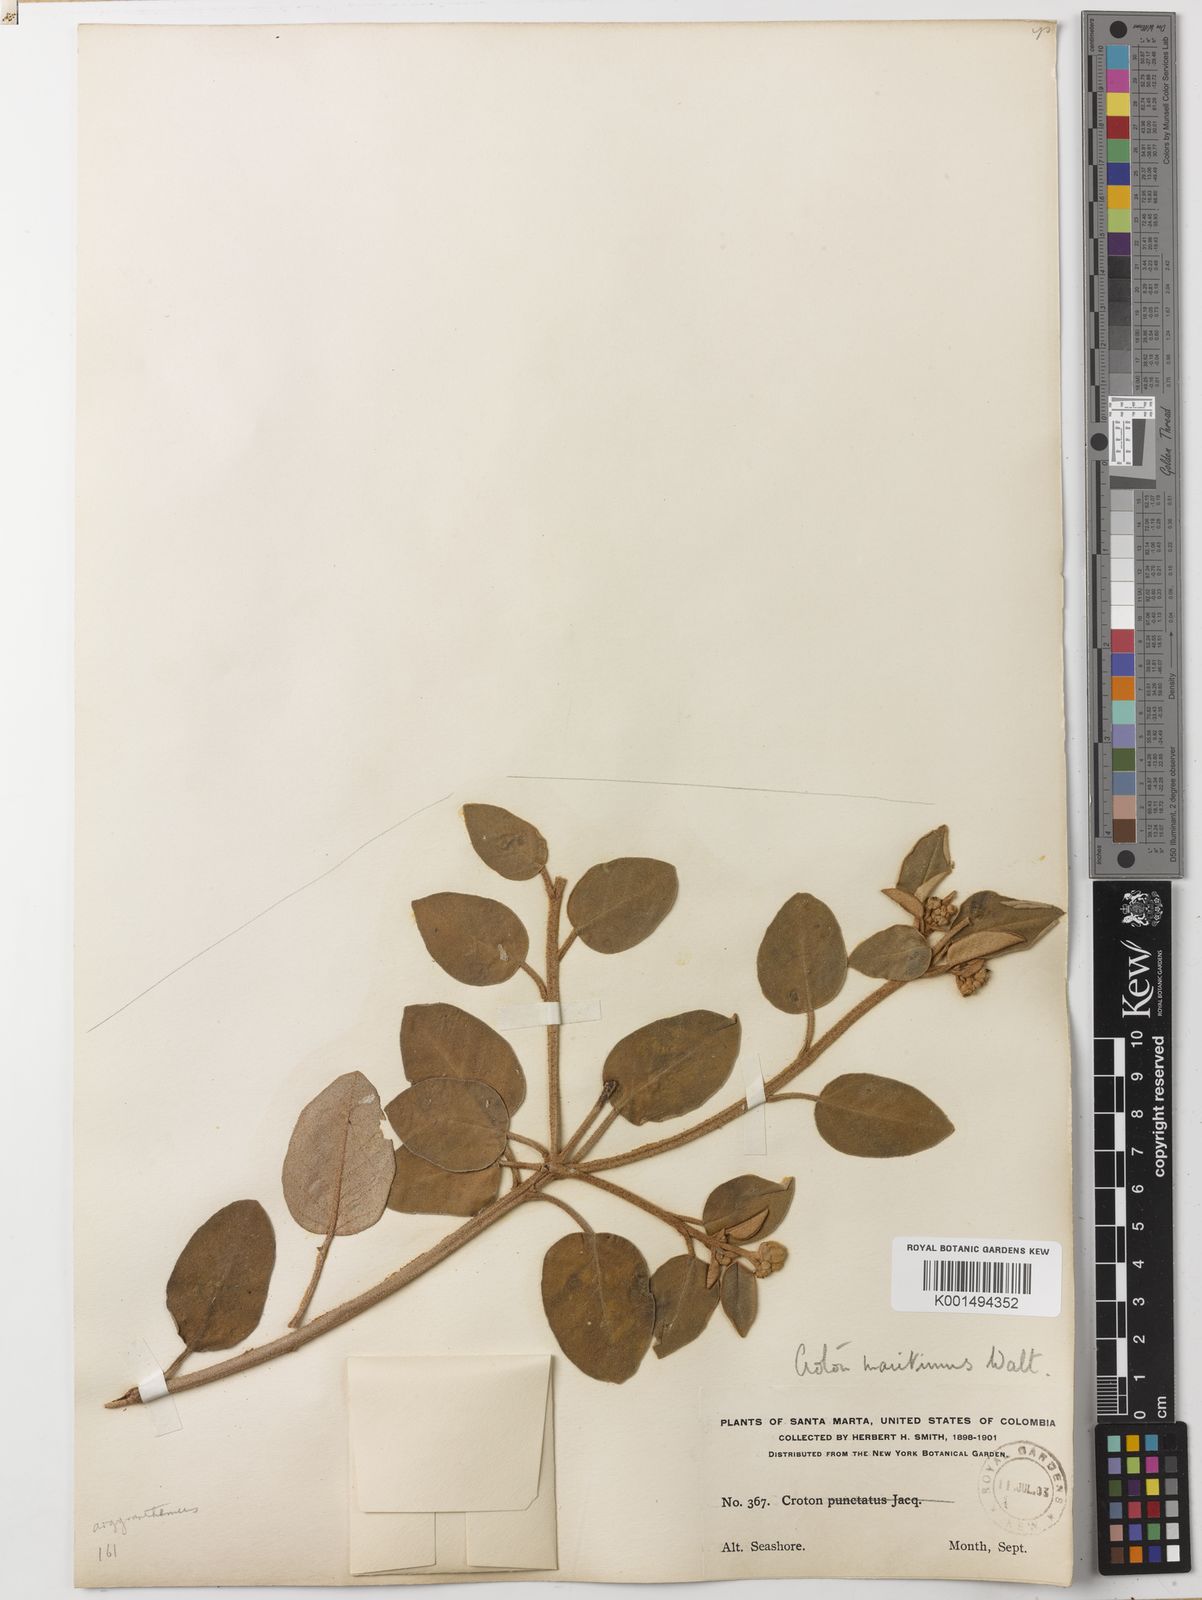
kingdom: Plantae
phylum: Tracheophyta
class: Magnoliopsida
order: Malpighiales
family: Euphorbiaceae
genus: Croton
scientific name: Croton punctatus
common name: Beach-tea
